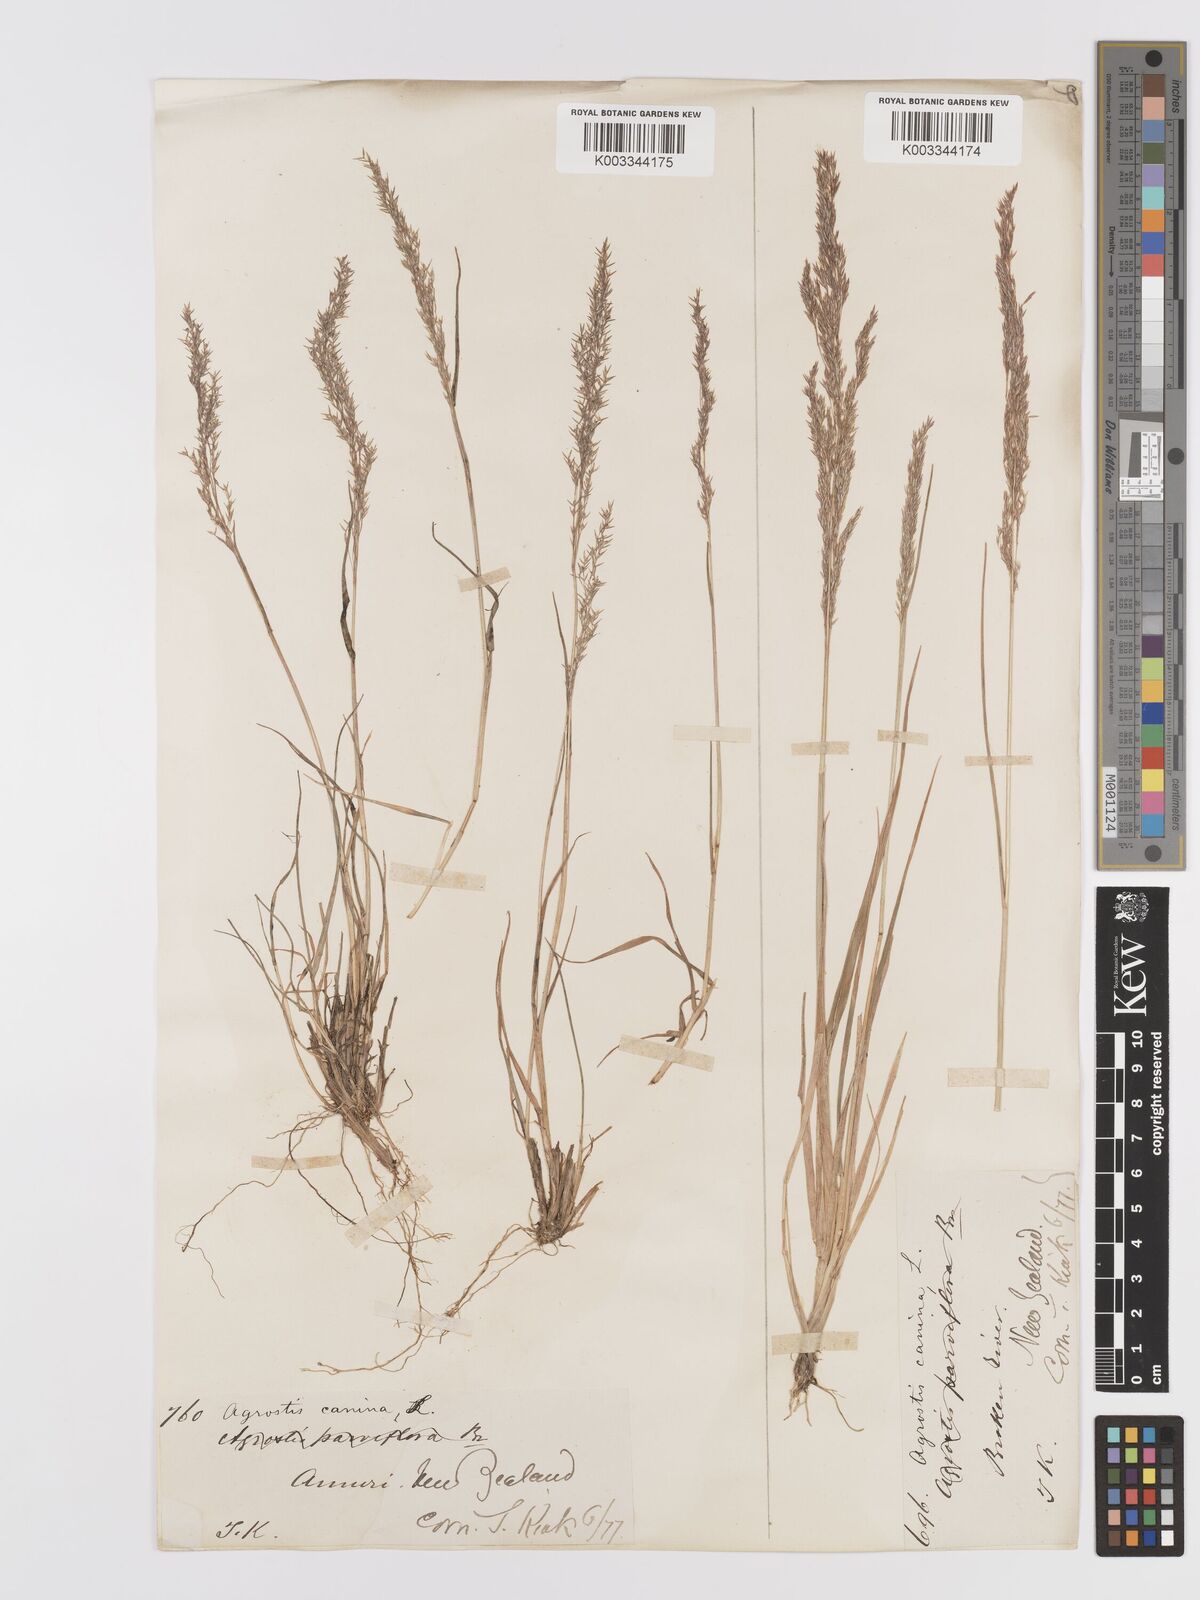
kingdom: Plantae
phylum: Tracheophyta
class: Liliopsida
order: Poales
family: Poaceae
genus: Agrostis
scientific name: Agrostis personata
